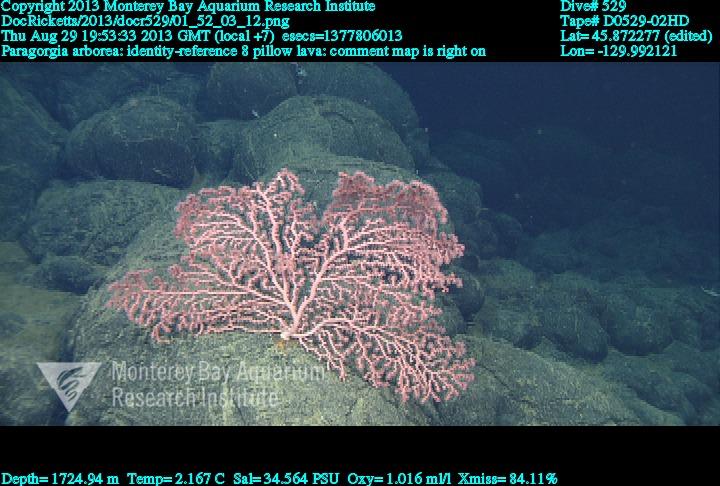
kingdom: Animalia
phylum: Cnidaria
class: Anthozoa
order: Scleralcyonacea
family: Coralliidae
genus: Paragorgia
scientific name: Paragorgia arborea
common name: Bubble gum coral
